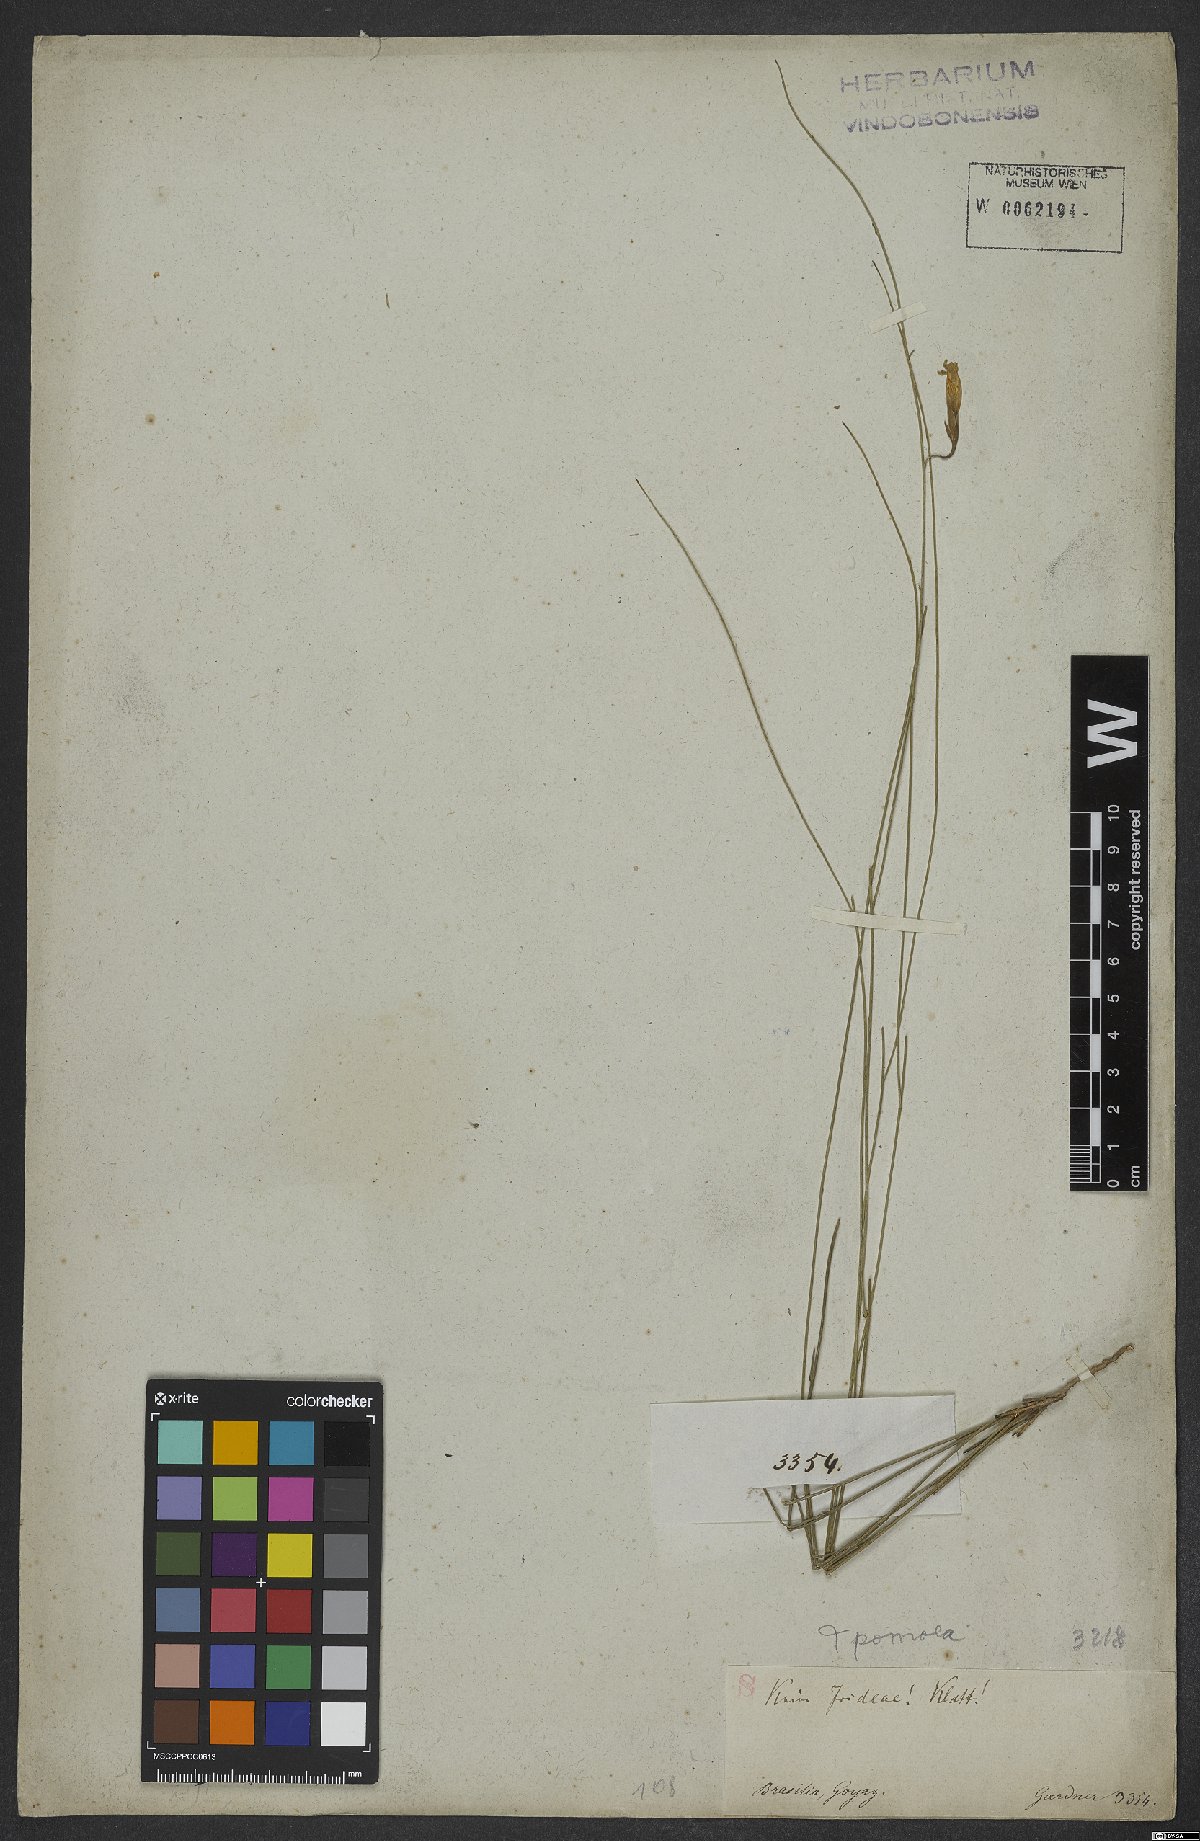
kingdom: Plantae
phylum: Tracheophyta
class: Magnoliopsida
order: Solanales
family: Convolvulaceae
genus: Ipomoea
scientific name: Ipomoea
